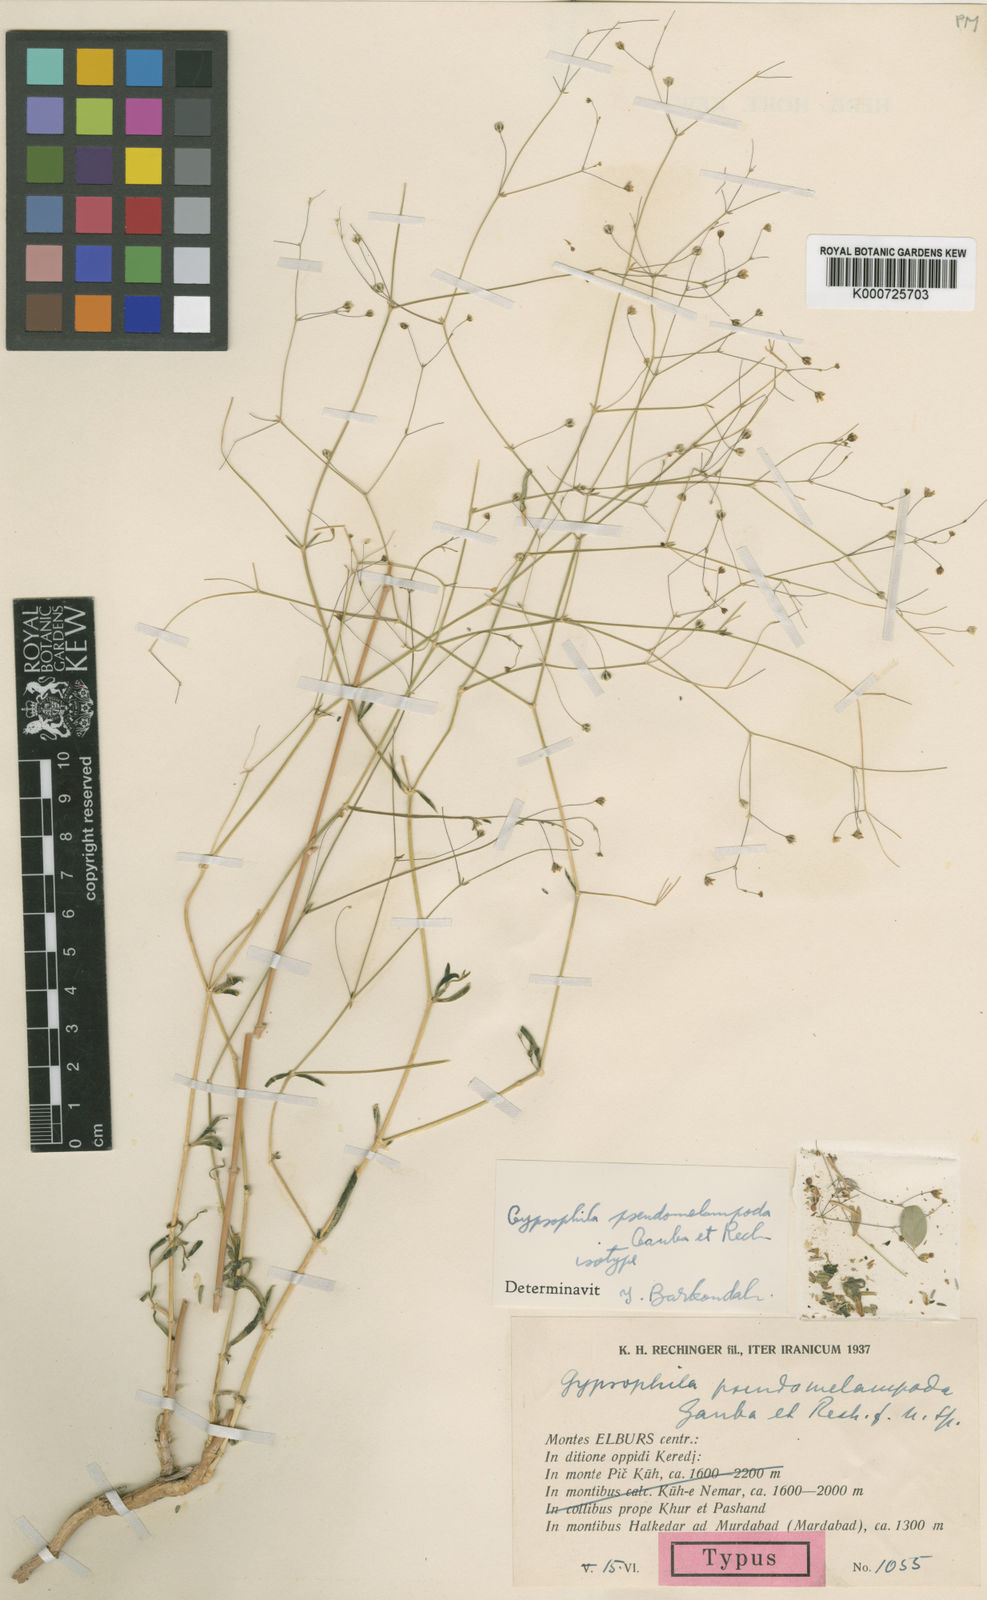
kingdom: Plantae
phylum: Tracheophyta
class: Magnoliopsida
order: Caryophyllales
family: Caryophyllaceae
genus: Gypsophila
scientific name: Gypsophila pseudomelampoda
